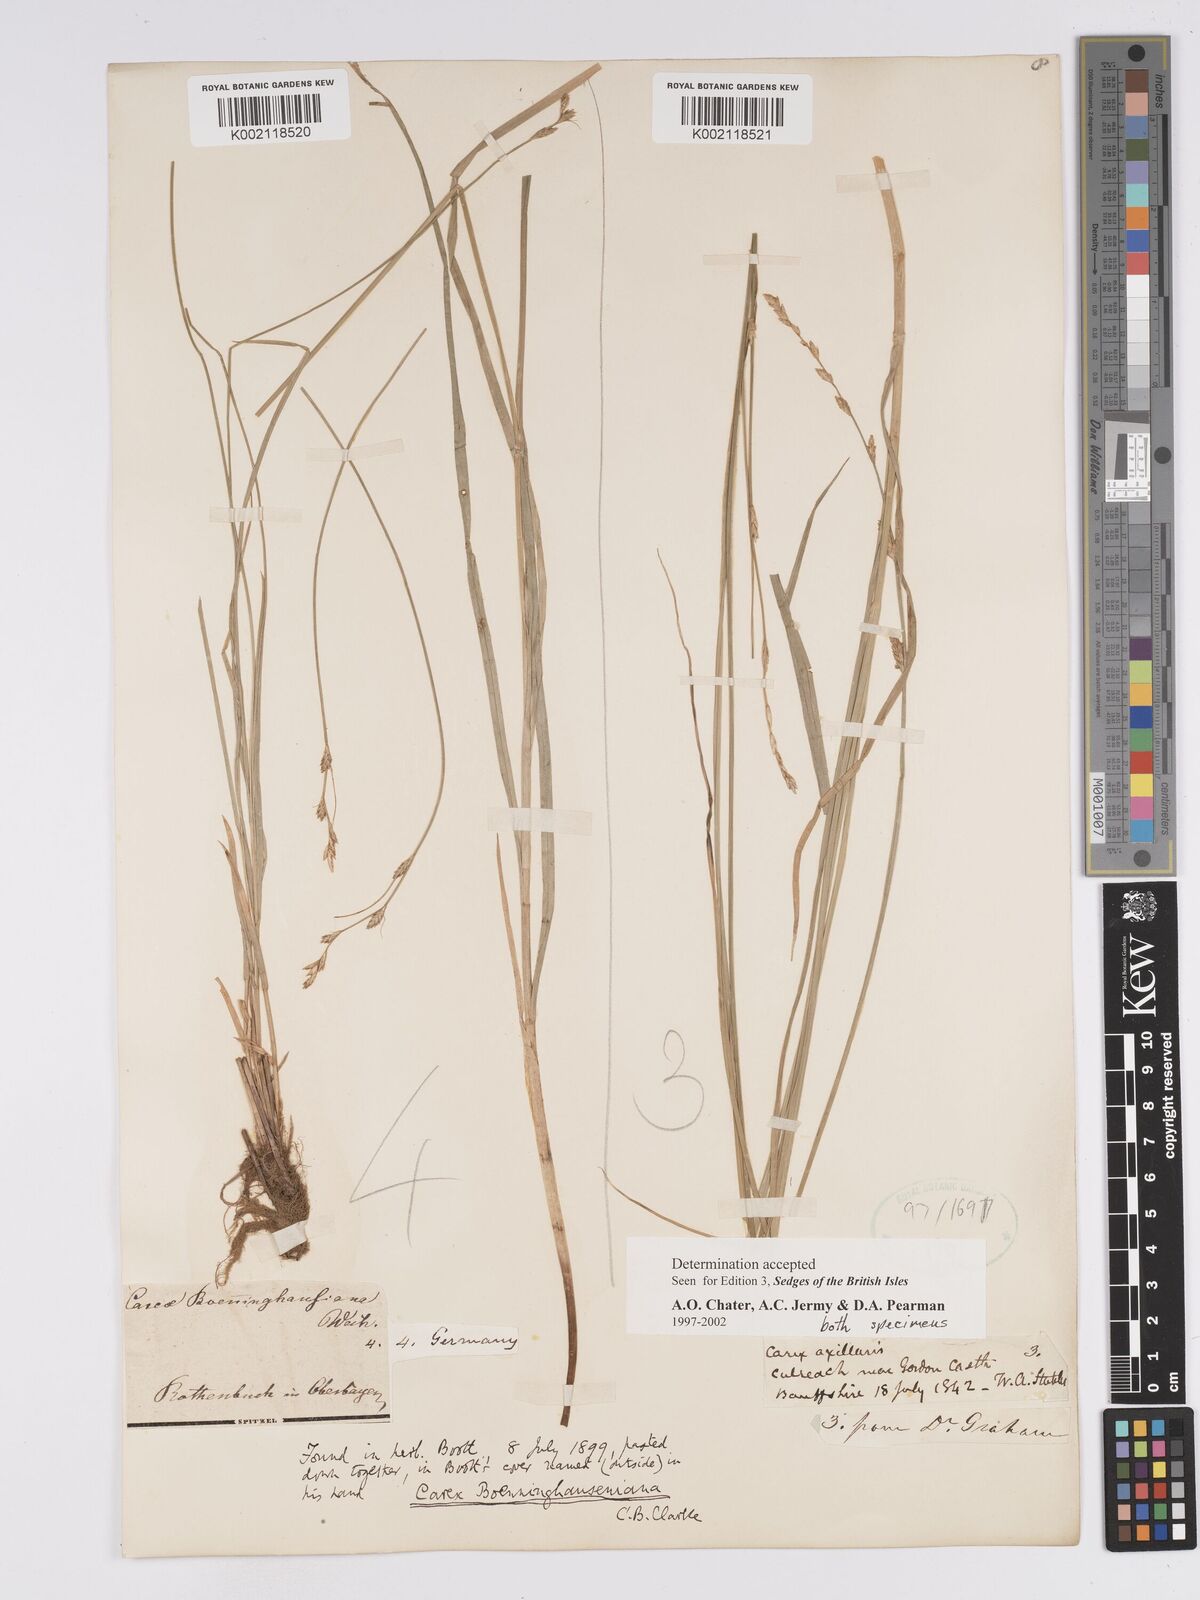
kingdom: Plantae
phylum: Tracheophyta
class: Liliopsida
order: Poales
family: Cyperaceae
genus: Carex
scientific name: Carex boenninghausiana
